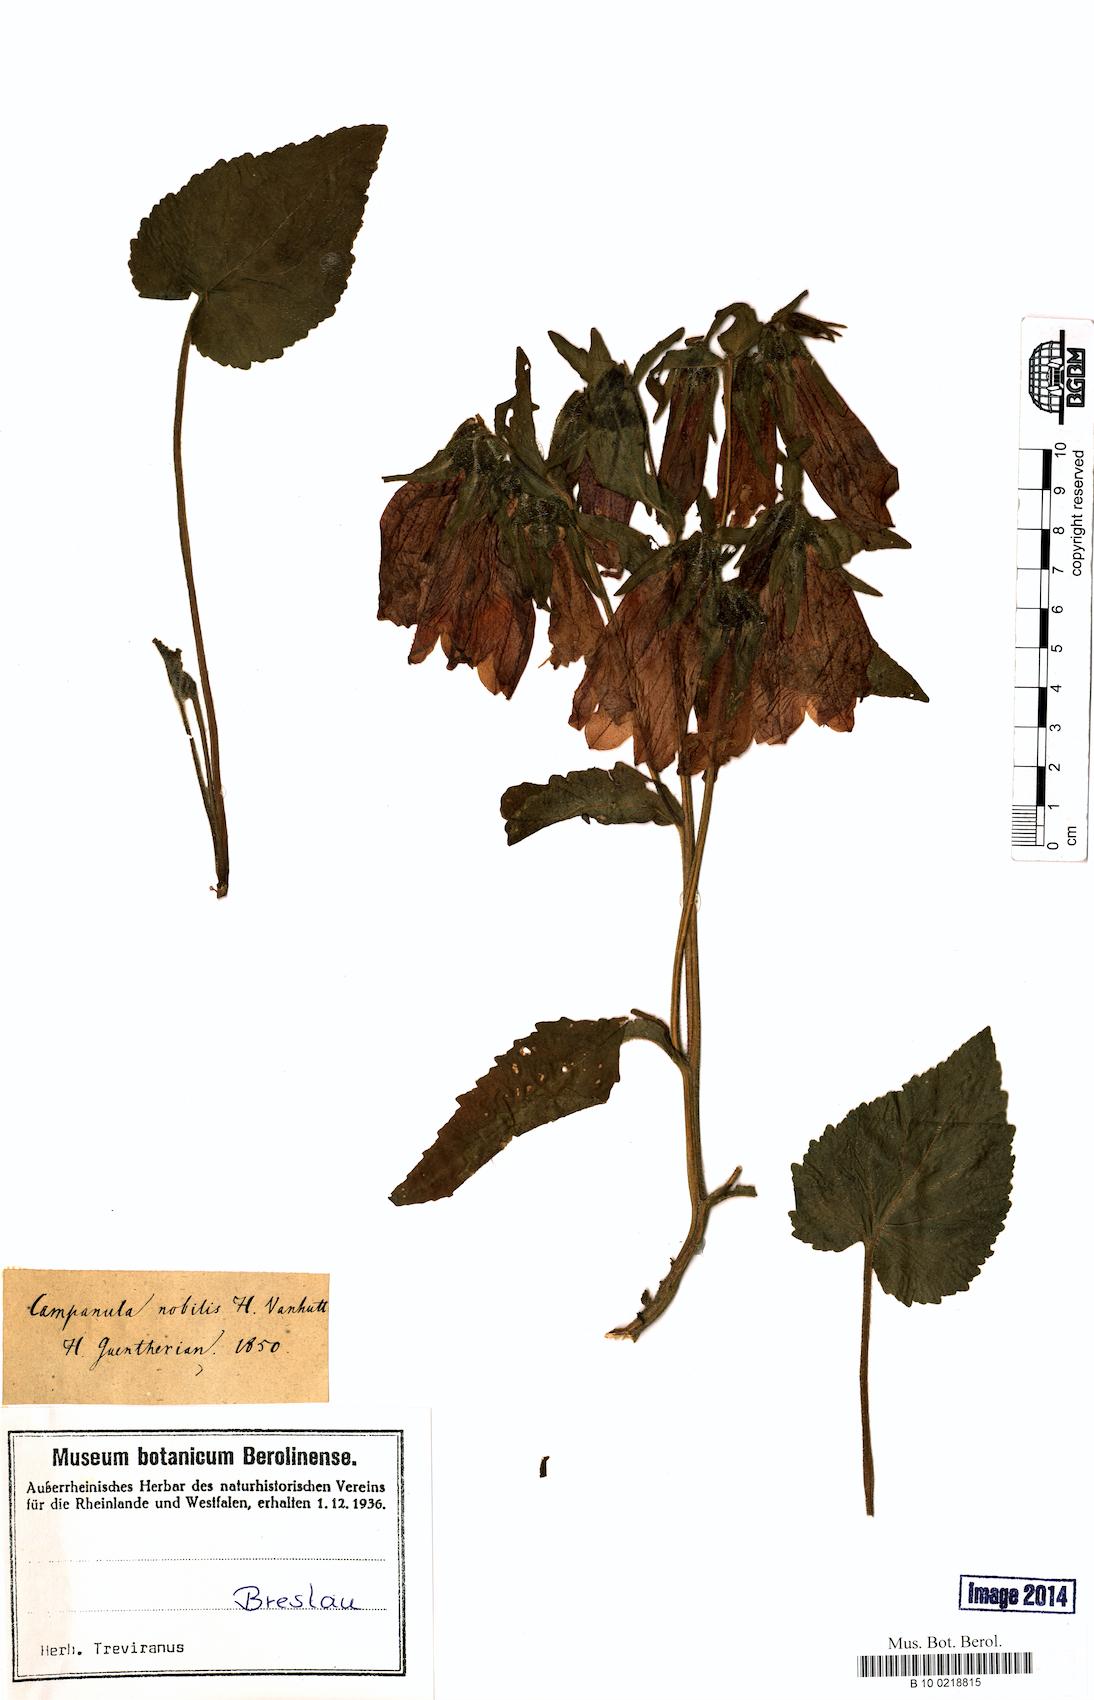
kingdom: Plantae
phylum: Tracheophyta
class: Magnoliopsida
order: Asterales
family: Campanulaceae
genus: Campanula
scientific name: Campanula punctata
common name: Spotted bellflower
